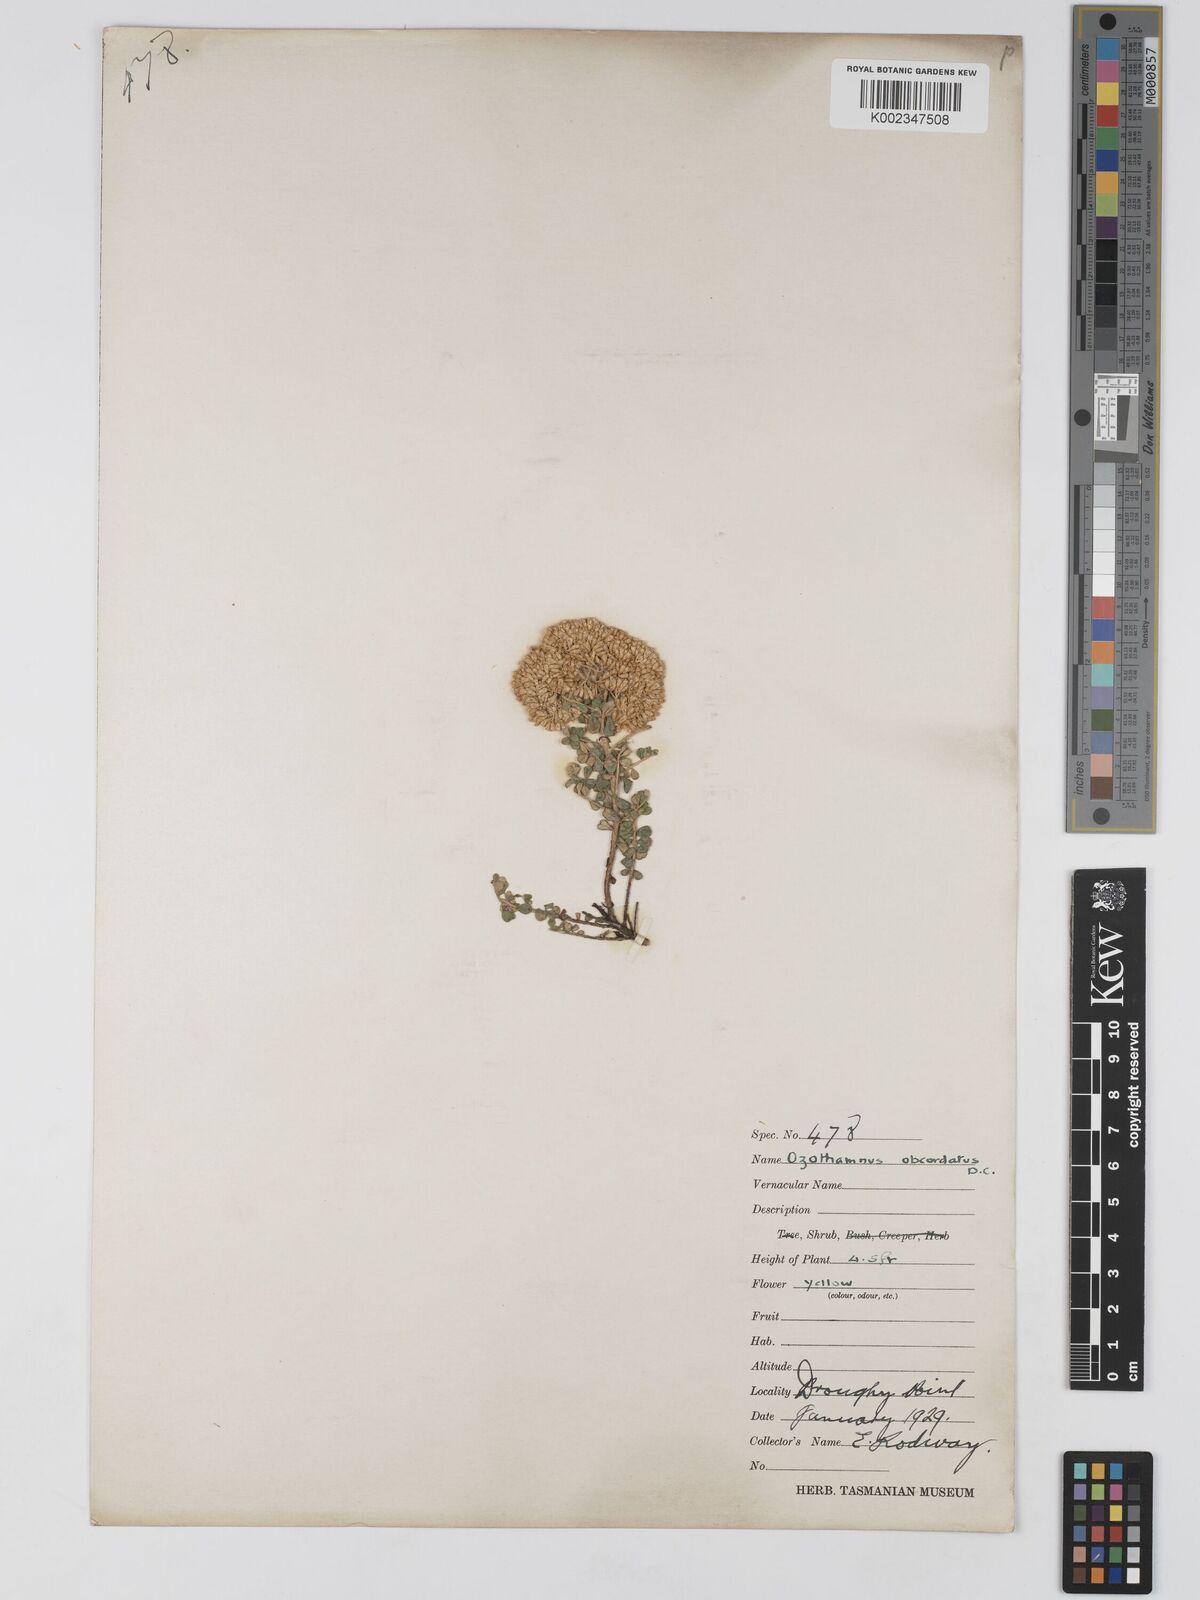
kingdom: Plantae
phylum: Tracheophyta
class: Magnoliopsida
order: Asterales
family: Asteraceae
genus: Ozothamnus
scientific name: Ozothamnus
